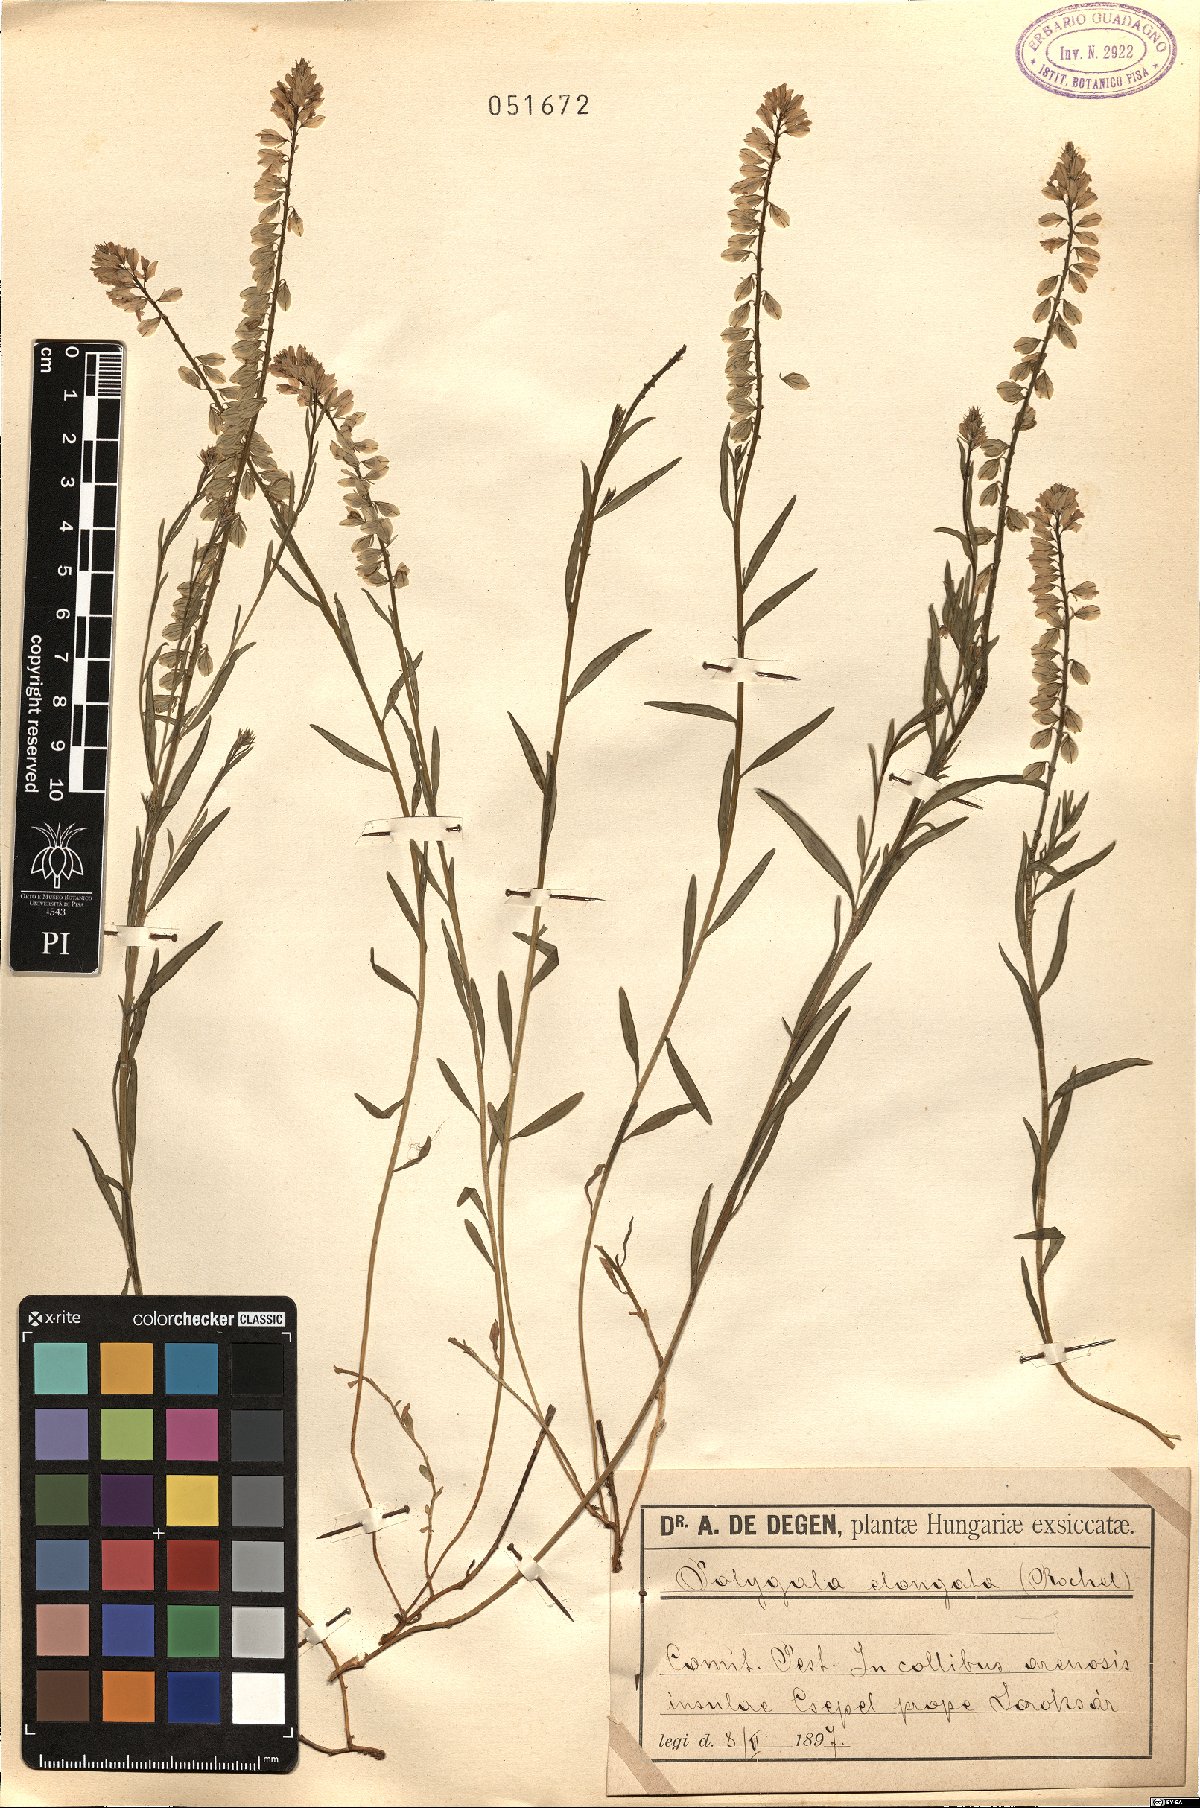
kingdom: Plantae
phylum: Tracheophyta
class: Magnoliopsida
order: Fabales
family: Polygalaceae
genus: Polygala
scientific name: Polygala preslii
